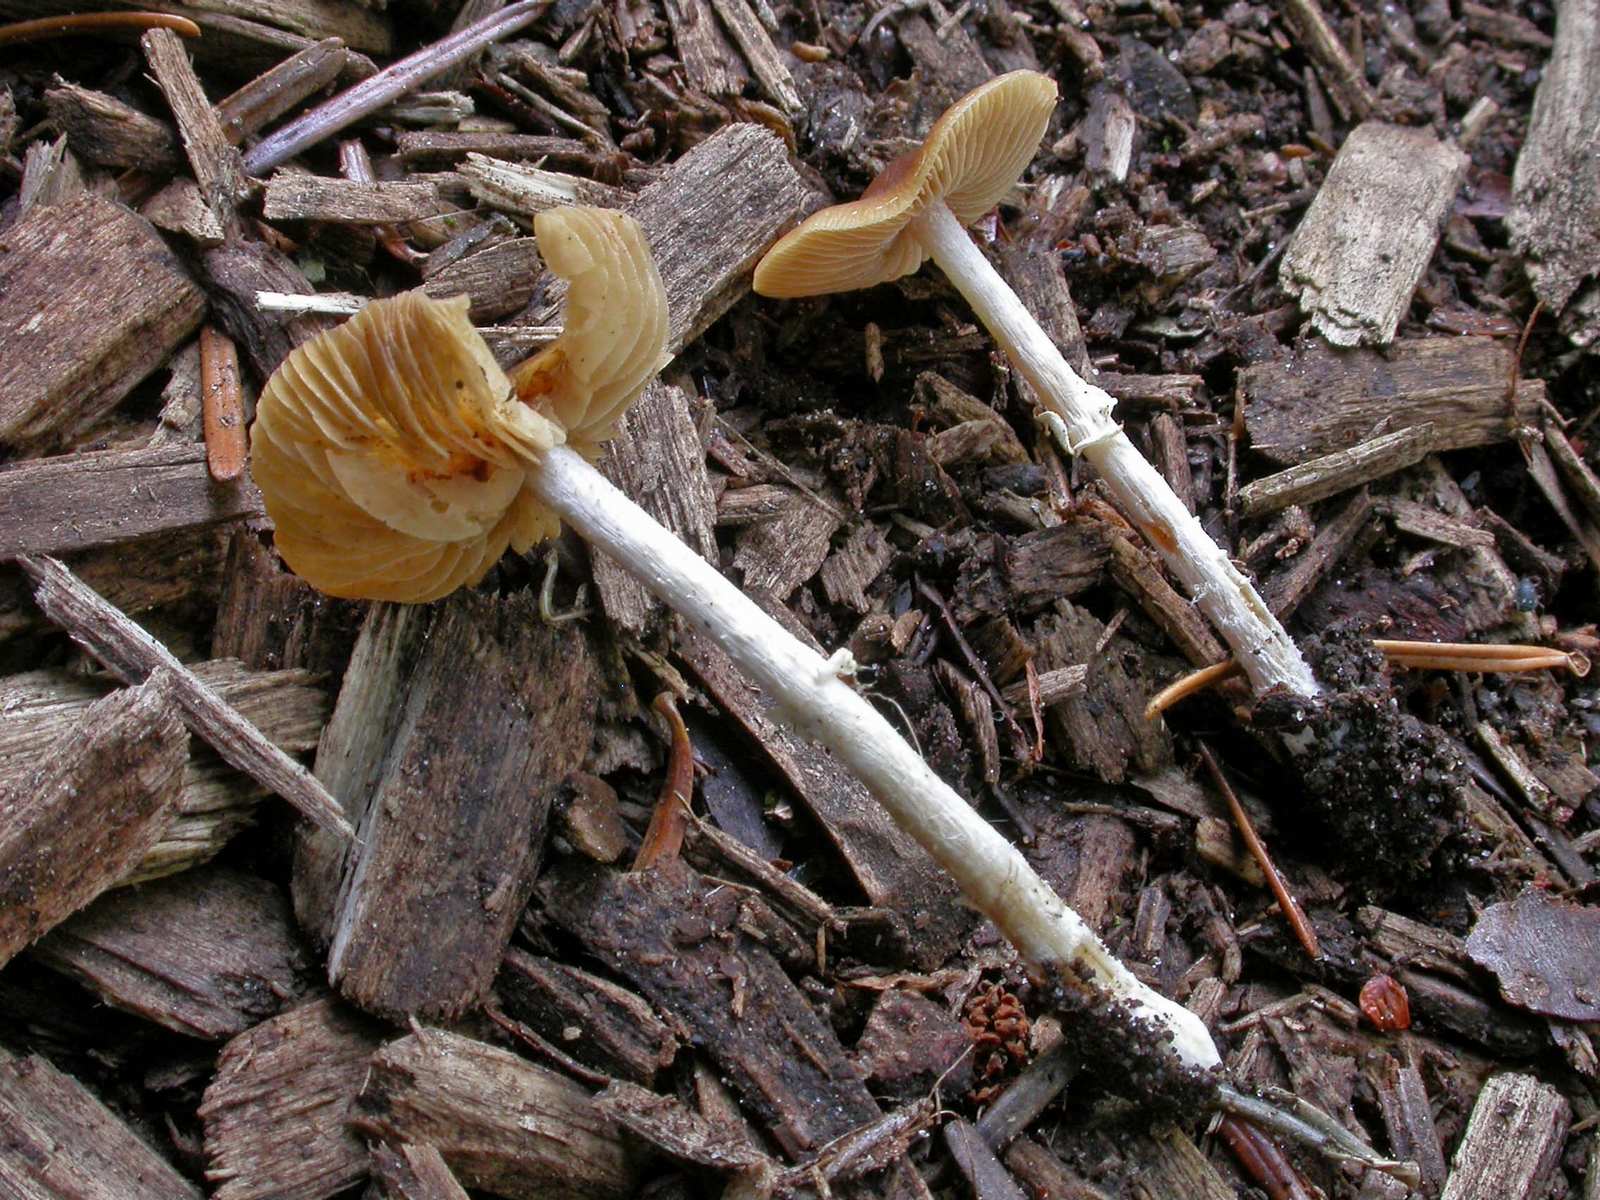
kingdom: Fungi
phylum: Basidiomycota
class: Agaricomycetes
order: Agaricales
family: Bolbitiaceae
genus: Conocybe
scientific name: Conocybe arrhenii
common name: ring-dansehat
